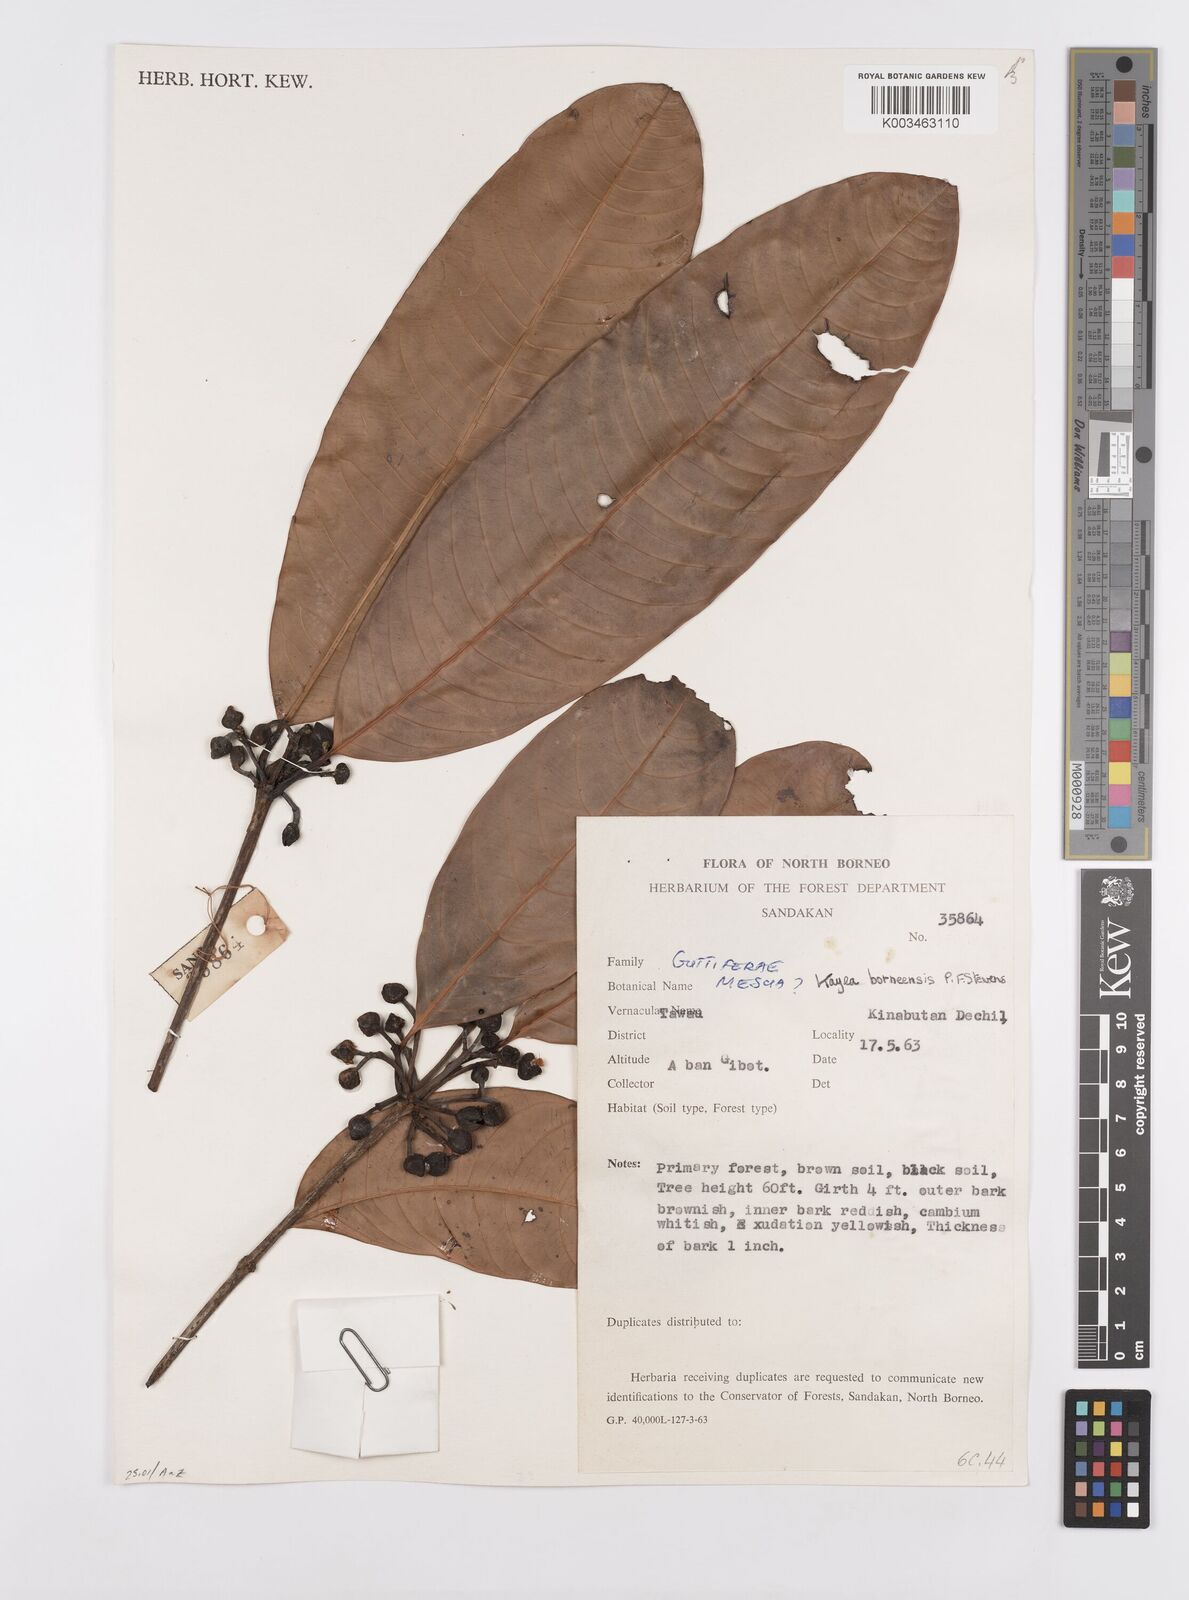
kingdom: Plantae
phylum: Tracheophyta
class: Magnoliopsida
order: Malpighiales
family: Calophyllaceae
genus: Kayea
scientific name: Kayea borneensis
